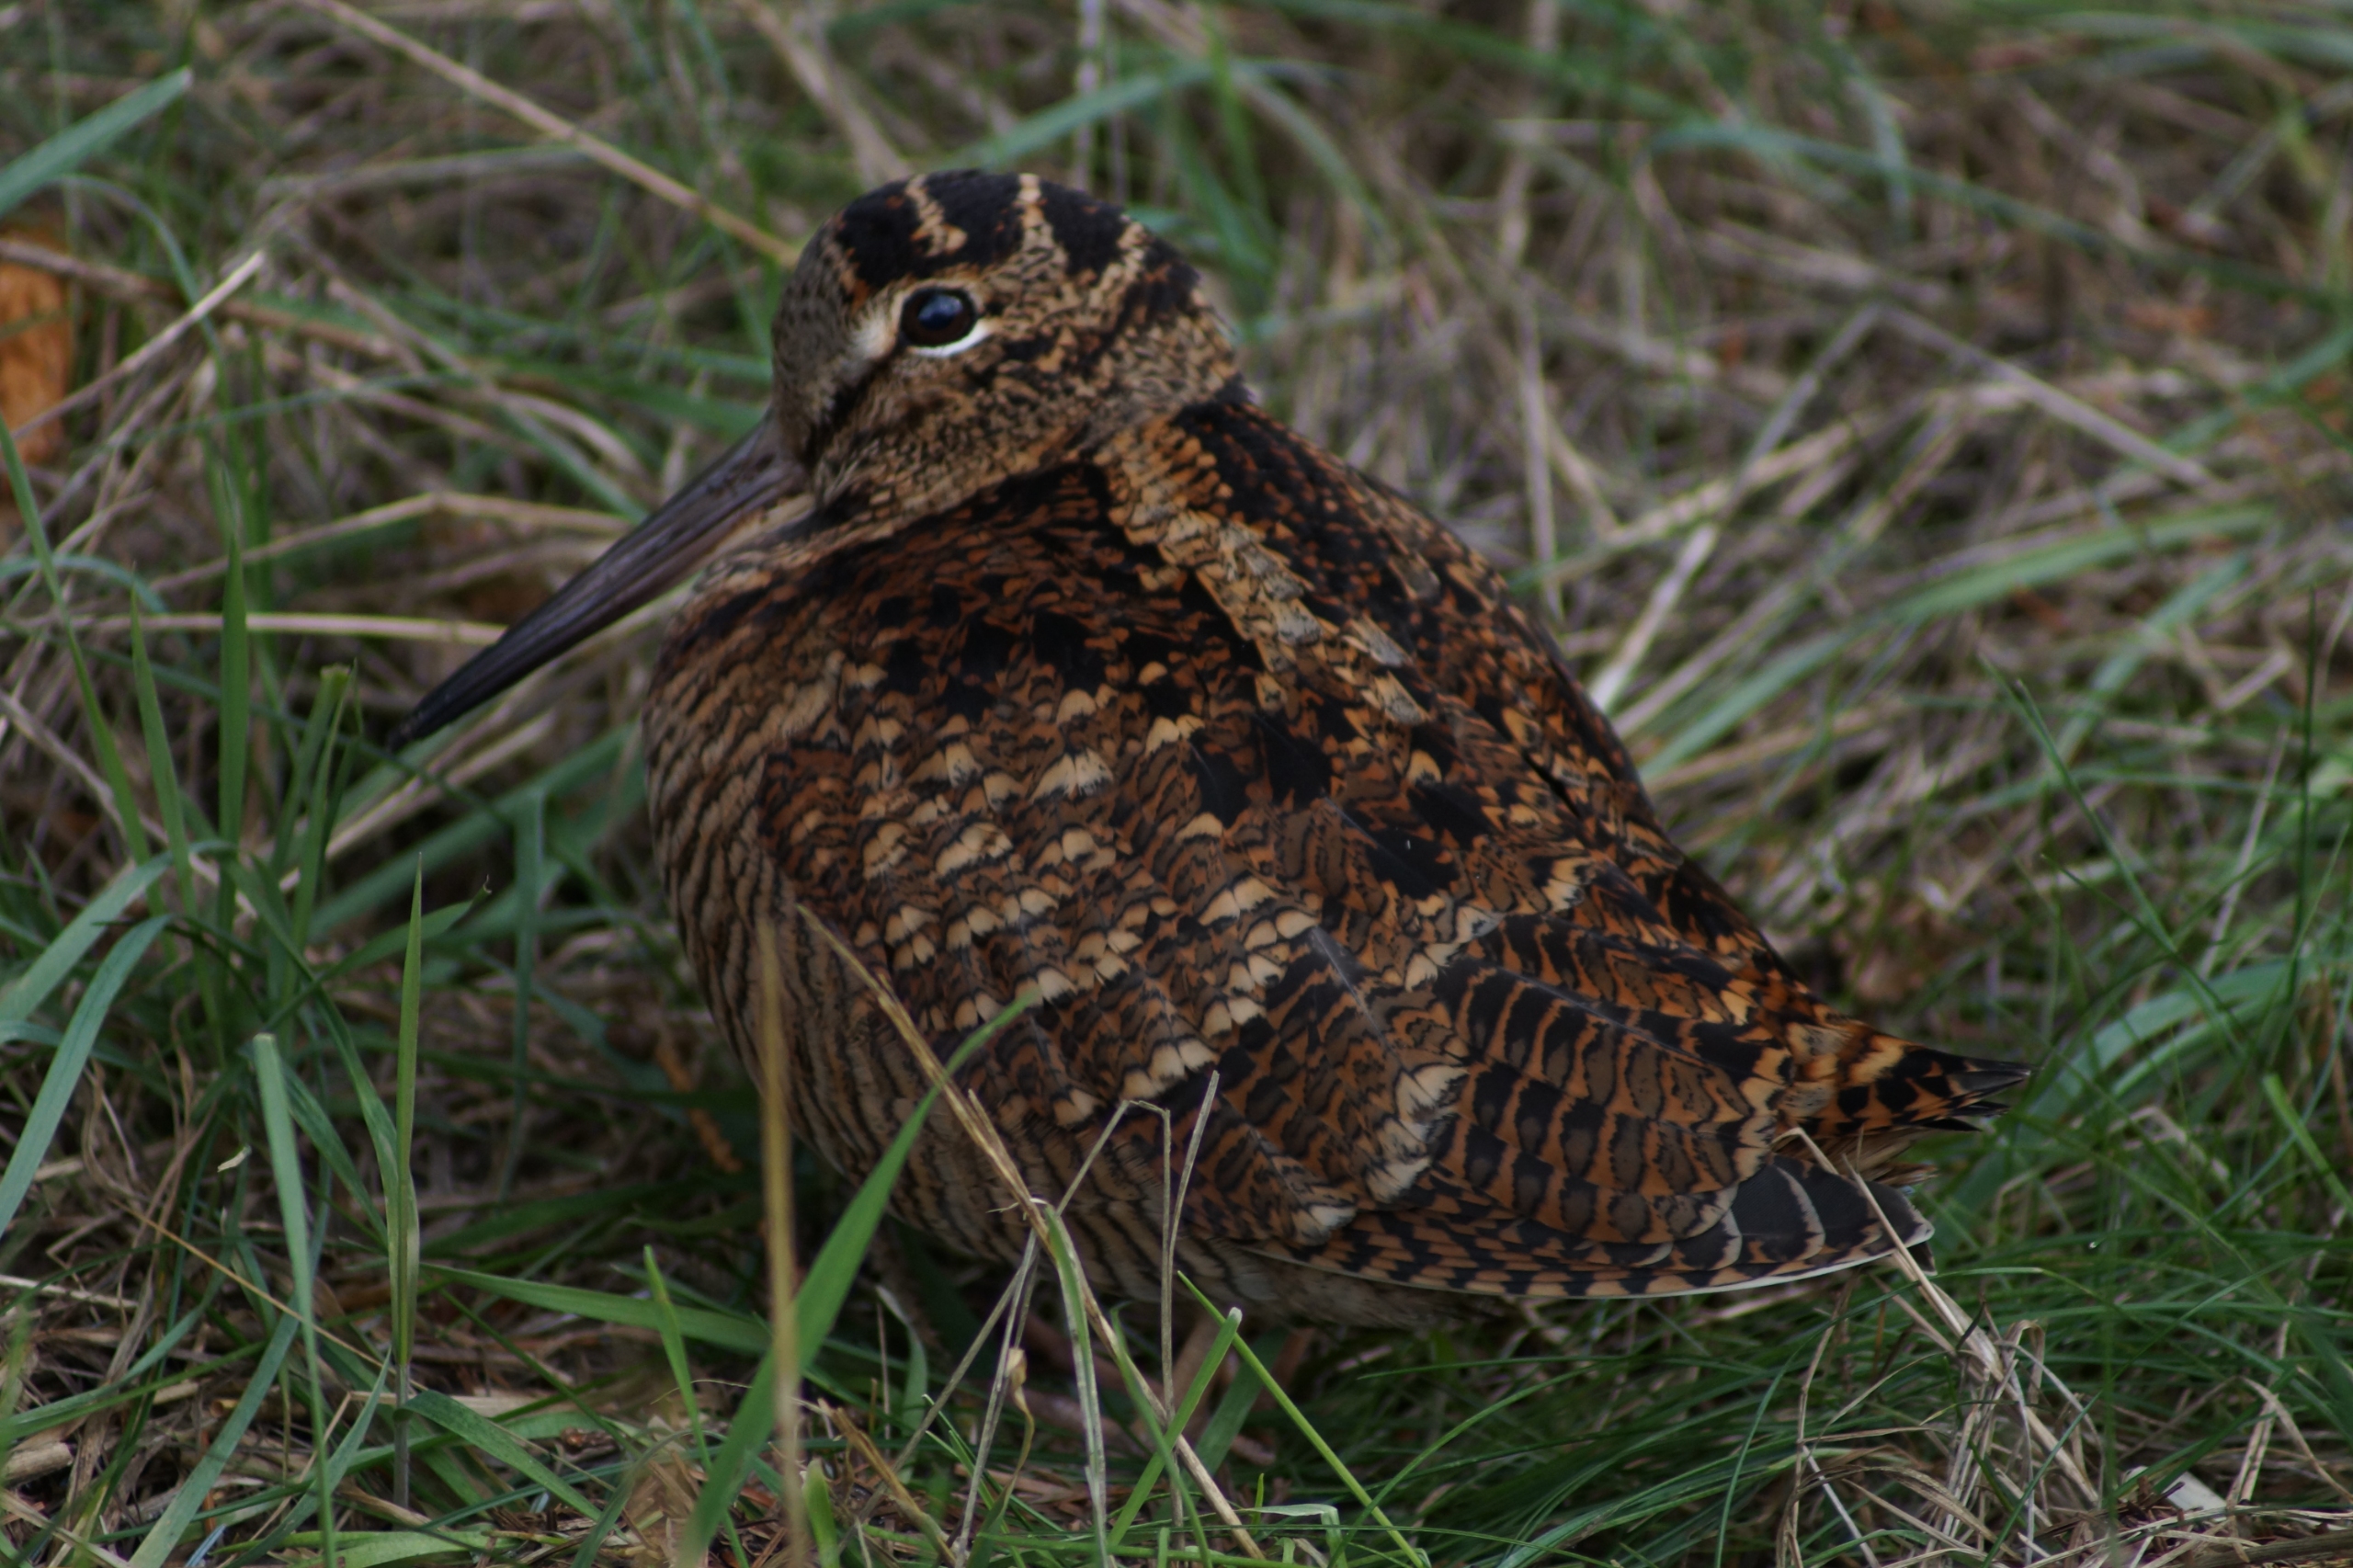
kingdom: Animalia
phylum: Chordata
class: Aves
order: Charadriiformes
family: Scolopacidae
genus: Scolopax
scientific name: Scolopax rusticola
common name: Skovsneppe
